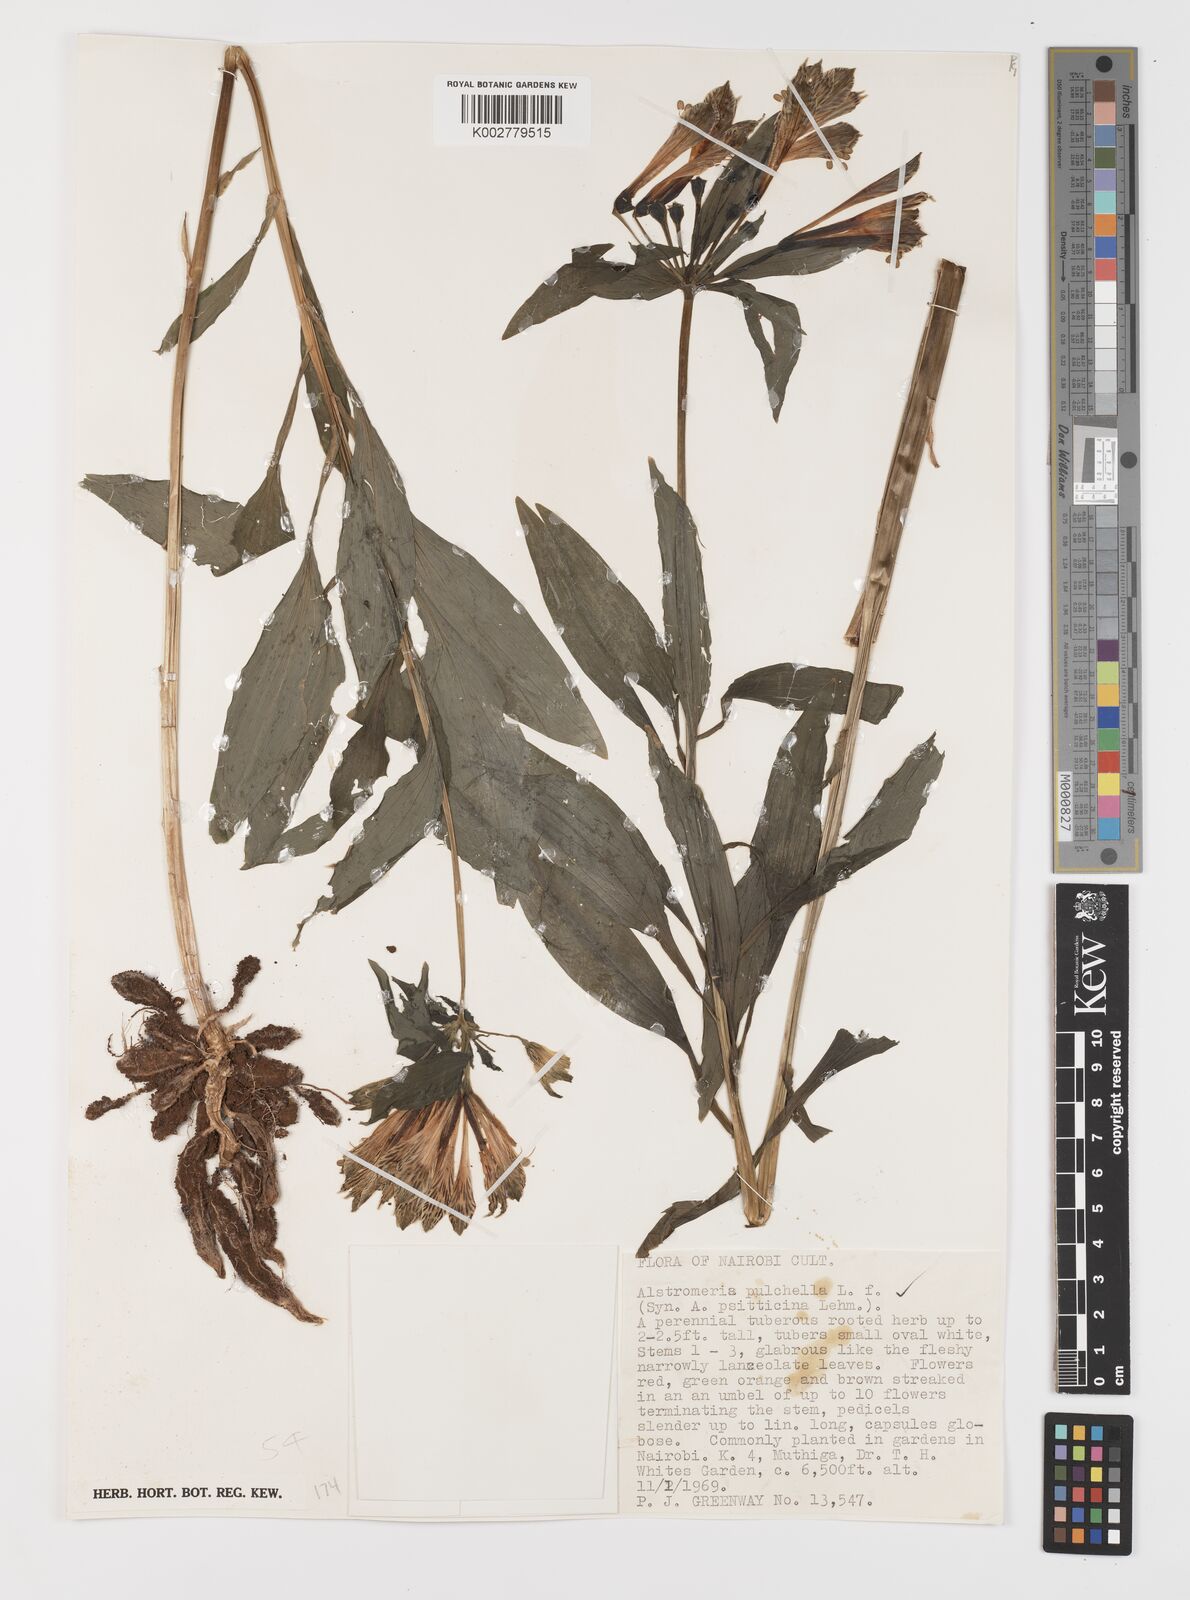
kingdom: Plantae
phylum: Tracheophyta
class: Liliopsida
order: Liliales
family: Alstroemeriaceae
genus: Alstroemeria
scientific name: Alstroemeria pelegrina
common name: Peruvian-lily
